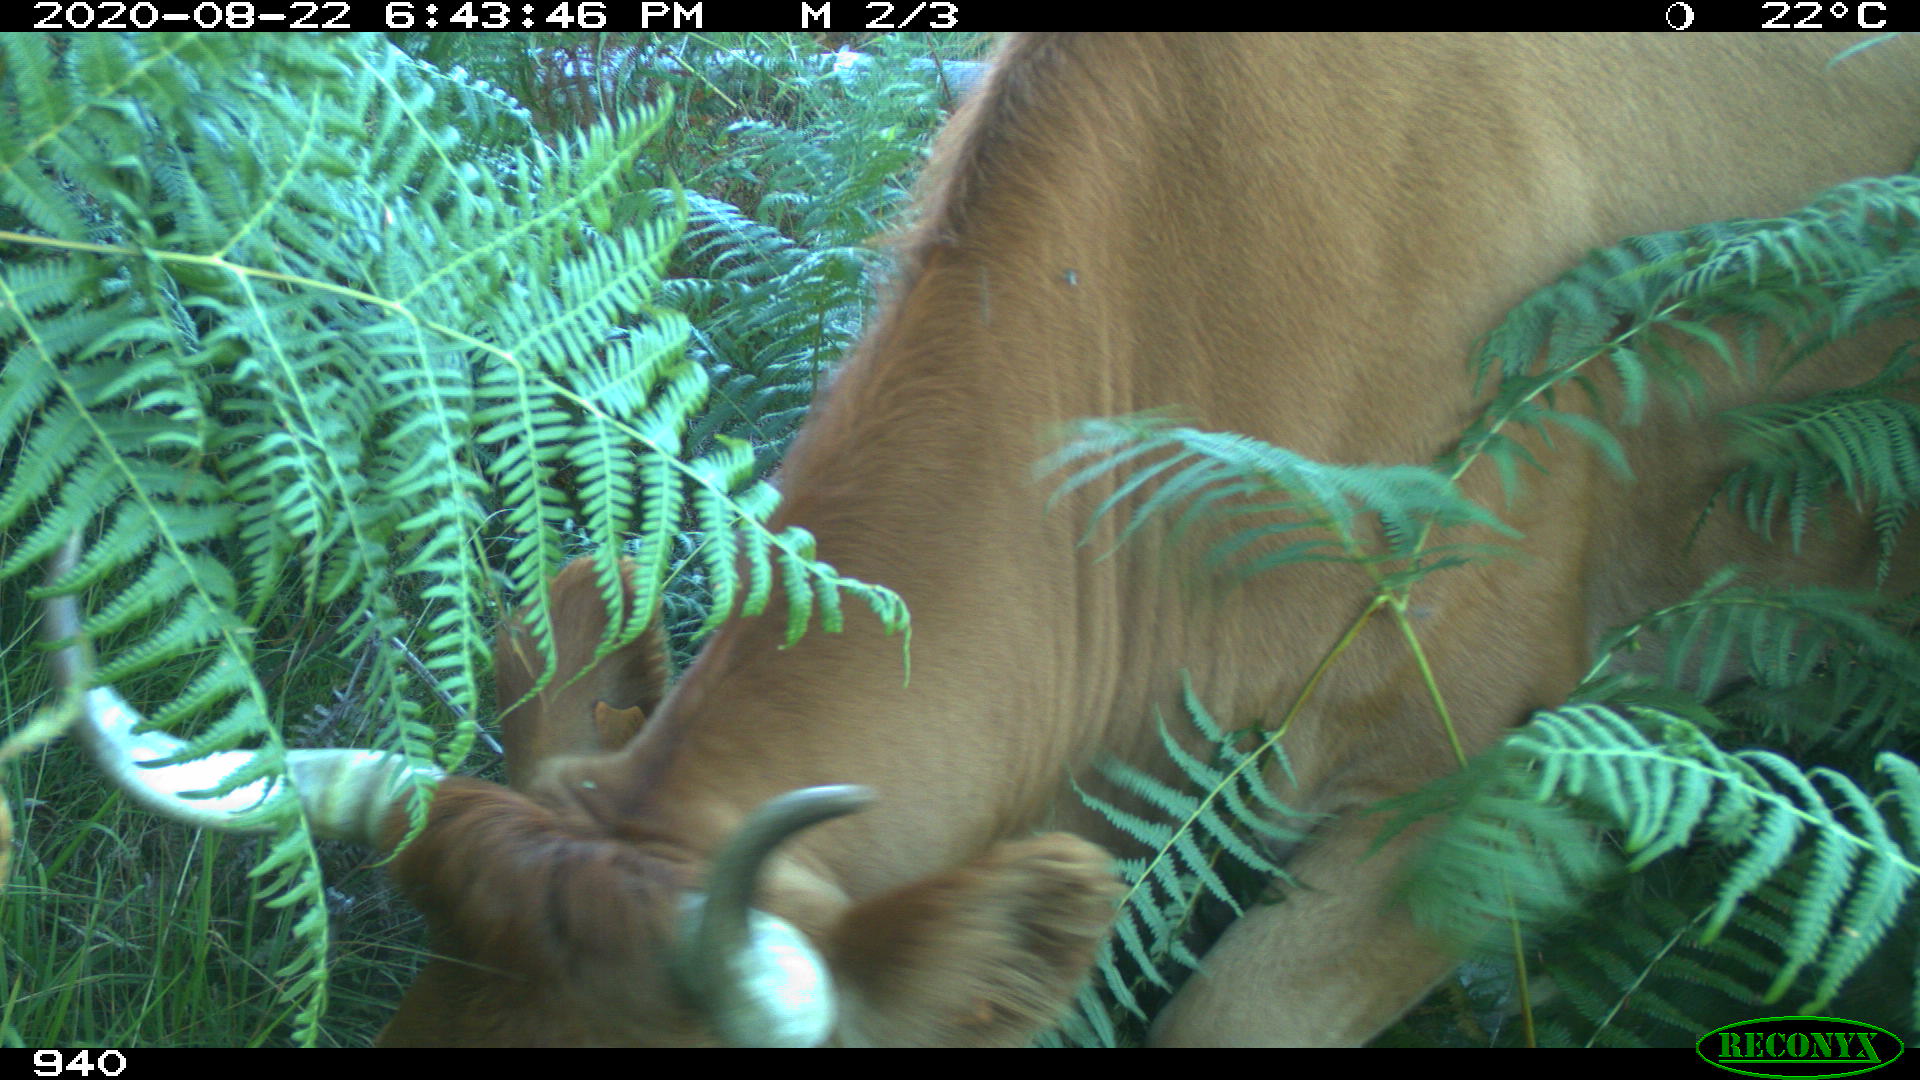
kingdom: Animalia
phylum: Chordata
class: Mammalia
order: Artiodactyla
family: Bovidae
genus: Bos
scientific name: Bos taurus
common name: Domesticated cattle
